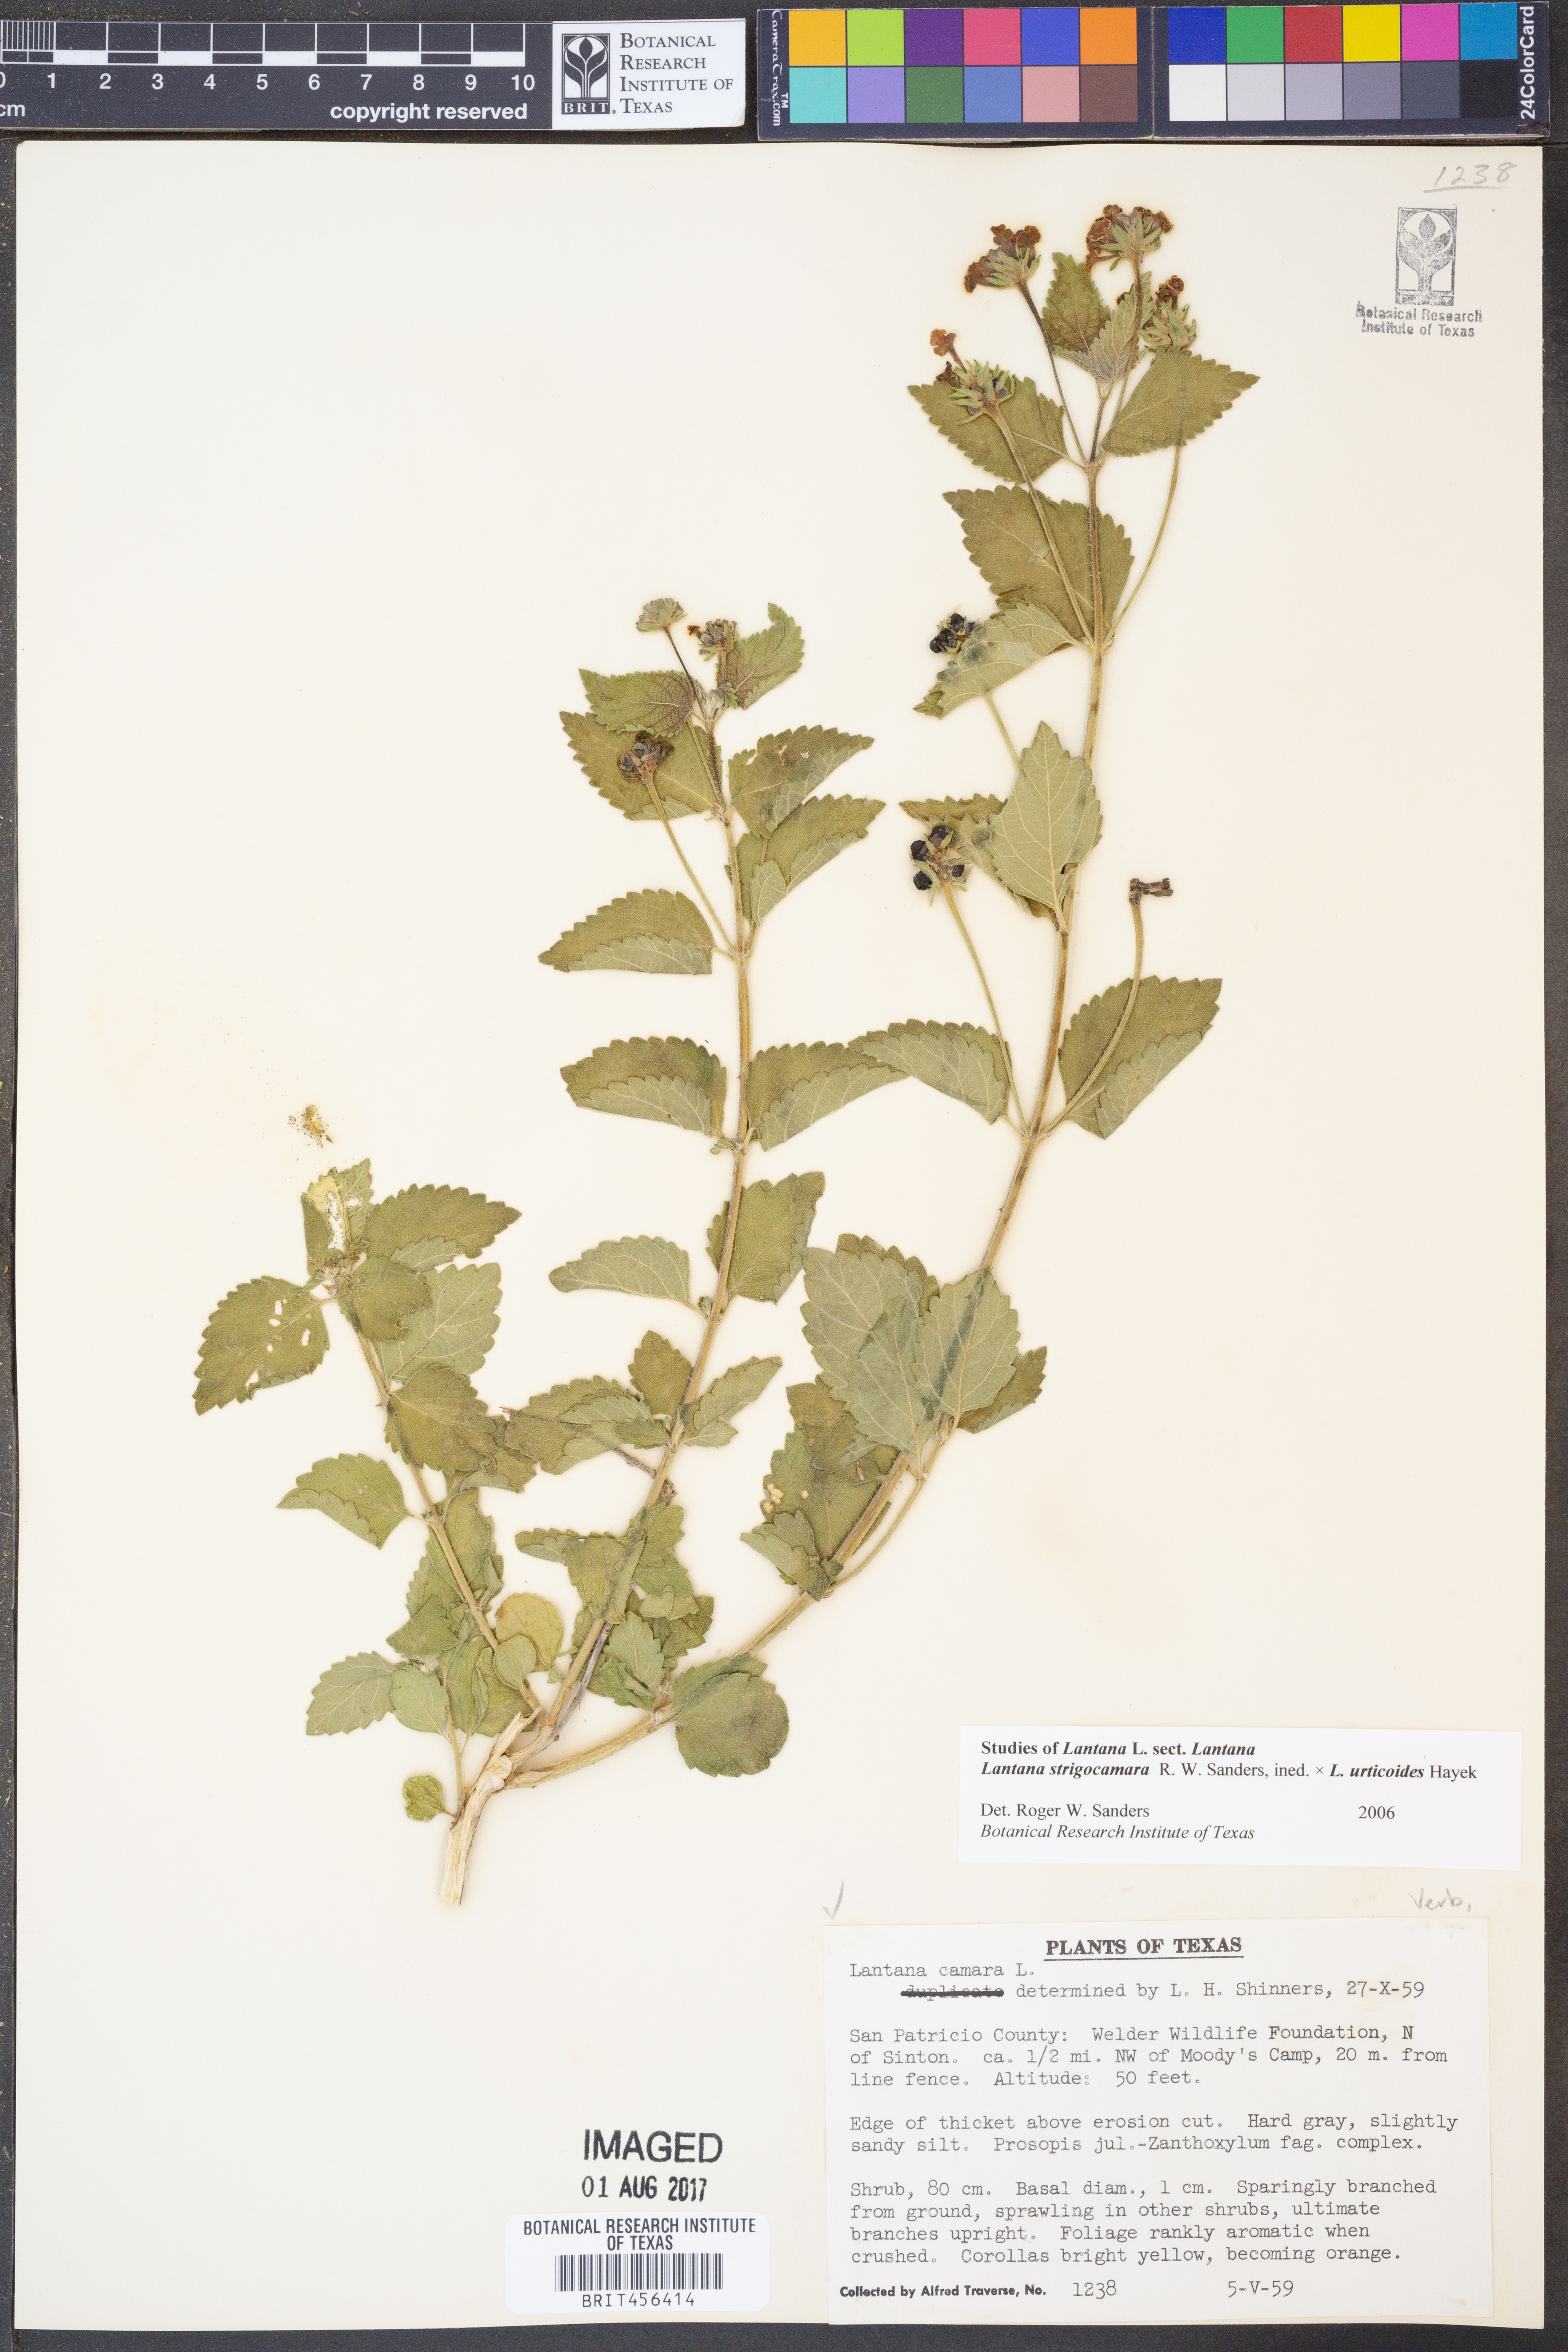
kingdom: Plantae
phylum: Tracheophyta
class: Magnoliopsida
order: Lamiales
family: Verbenaceae
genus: Lantana
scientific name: Lantana strigocamara
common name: Lantana
